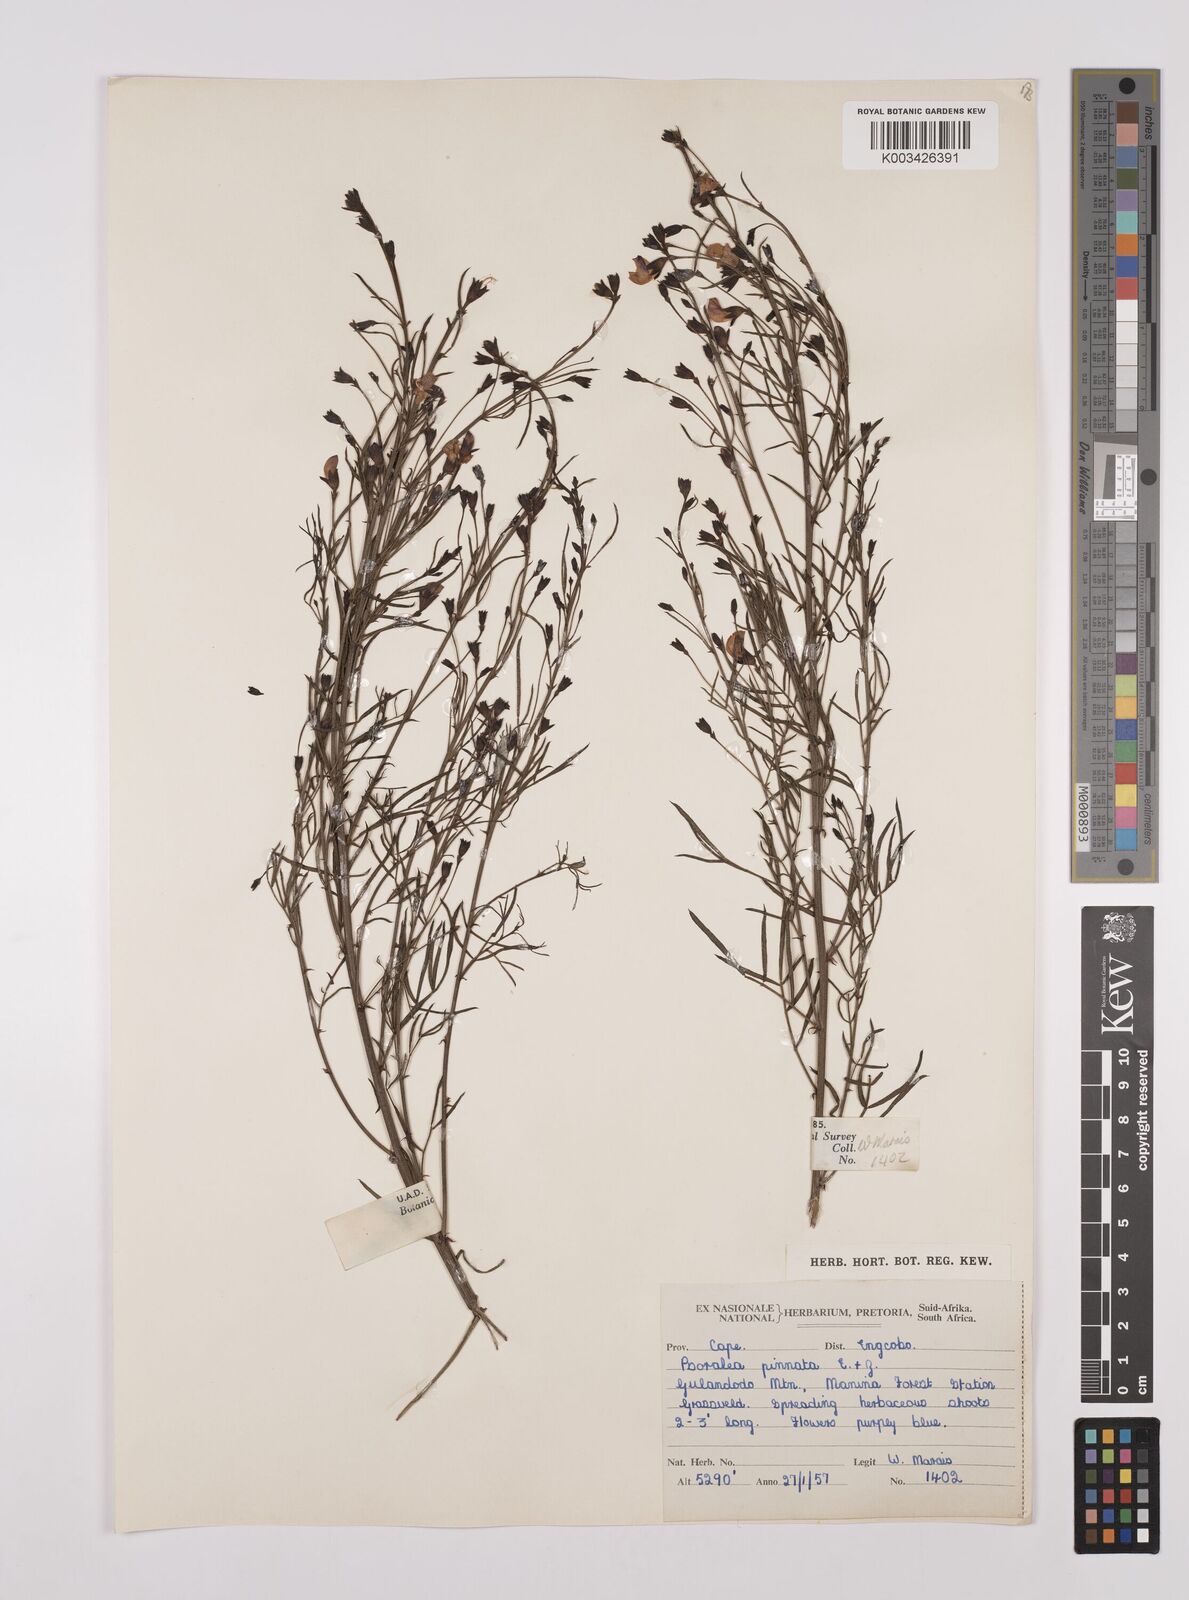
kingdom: Plantae
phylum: Tracheophyta
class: Magnoliopsida
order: Fabales
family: Fabaceae
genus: Psoralea
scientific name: Psoralea rhizotoma
